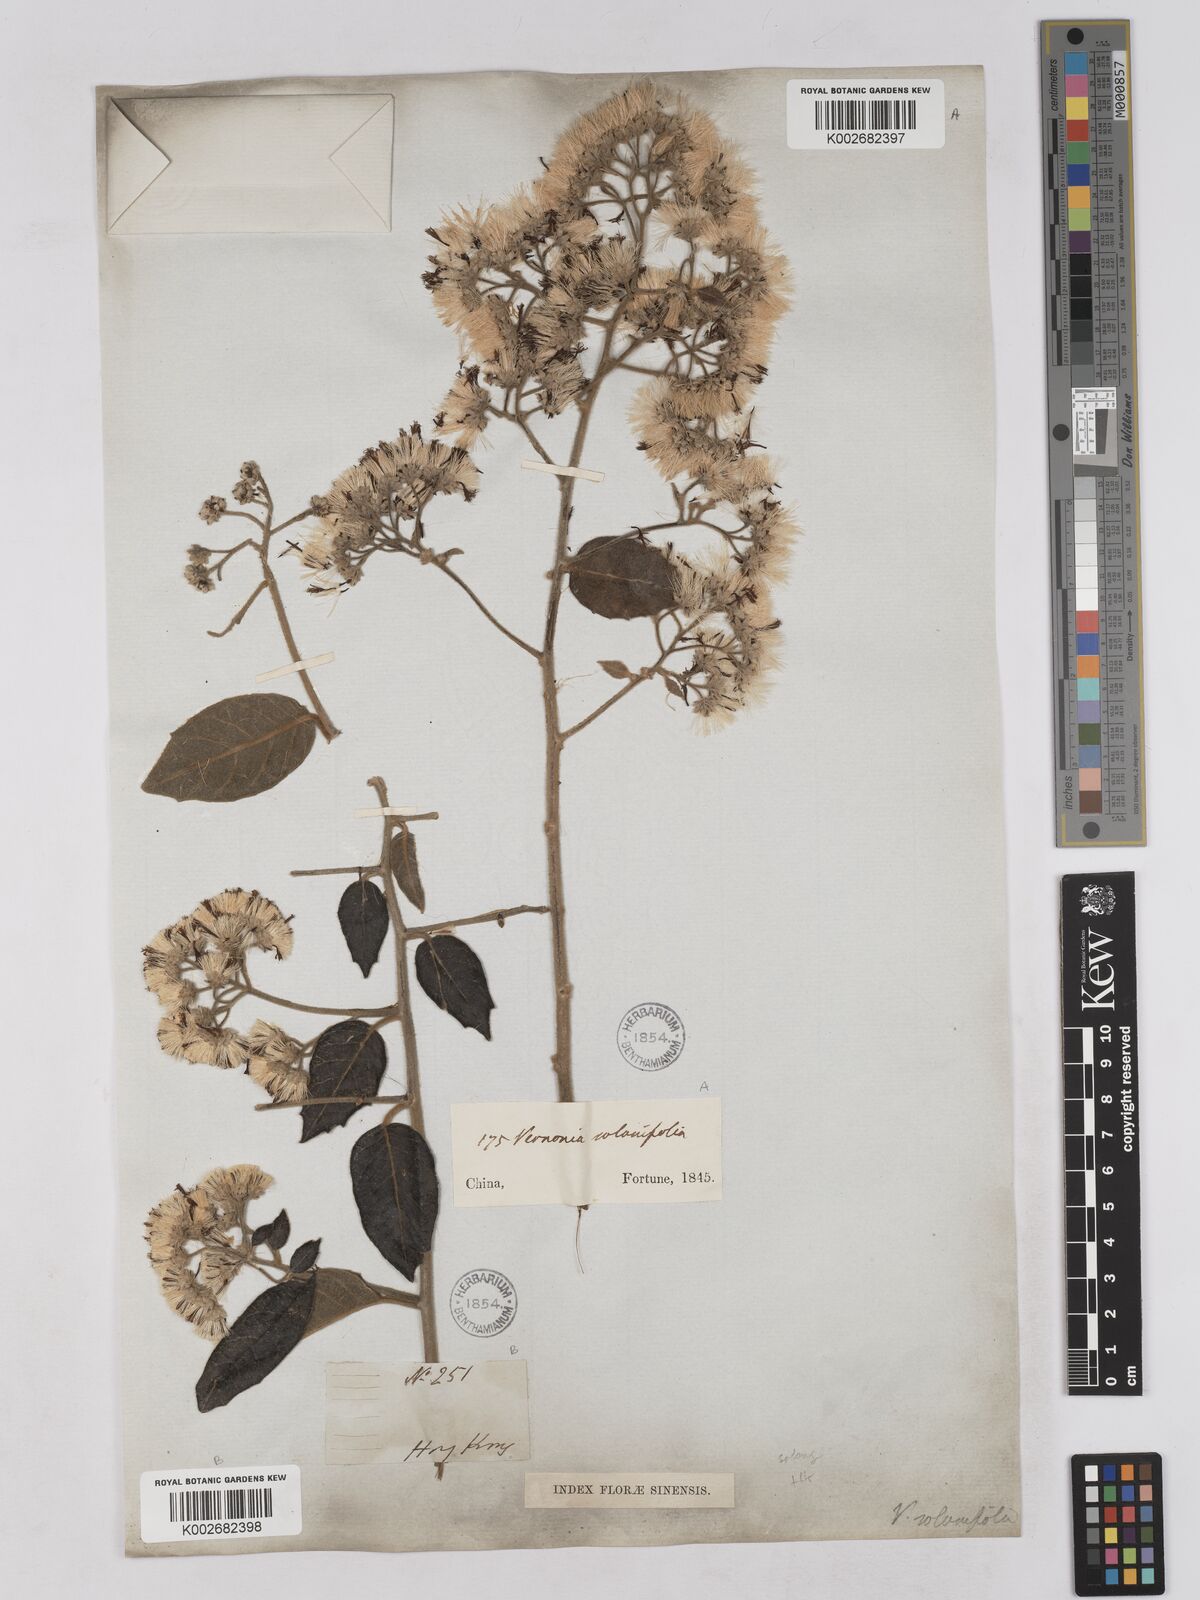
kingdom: Plantae
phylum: Tracheophyta
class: Magnoliopsida
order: Asterales
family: Asteraceae
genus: Strobocalyx
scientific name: Strobocalyx solanifolia
